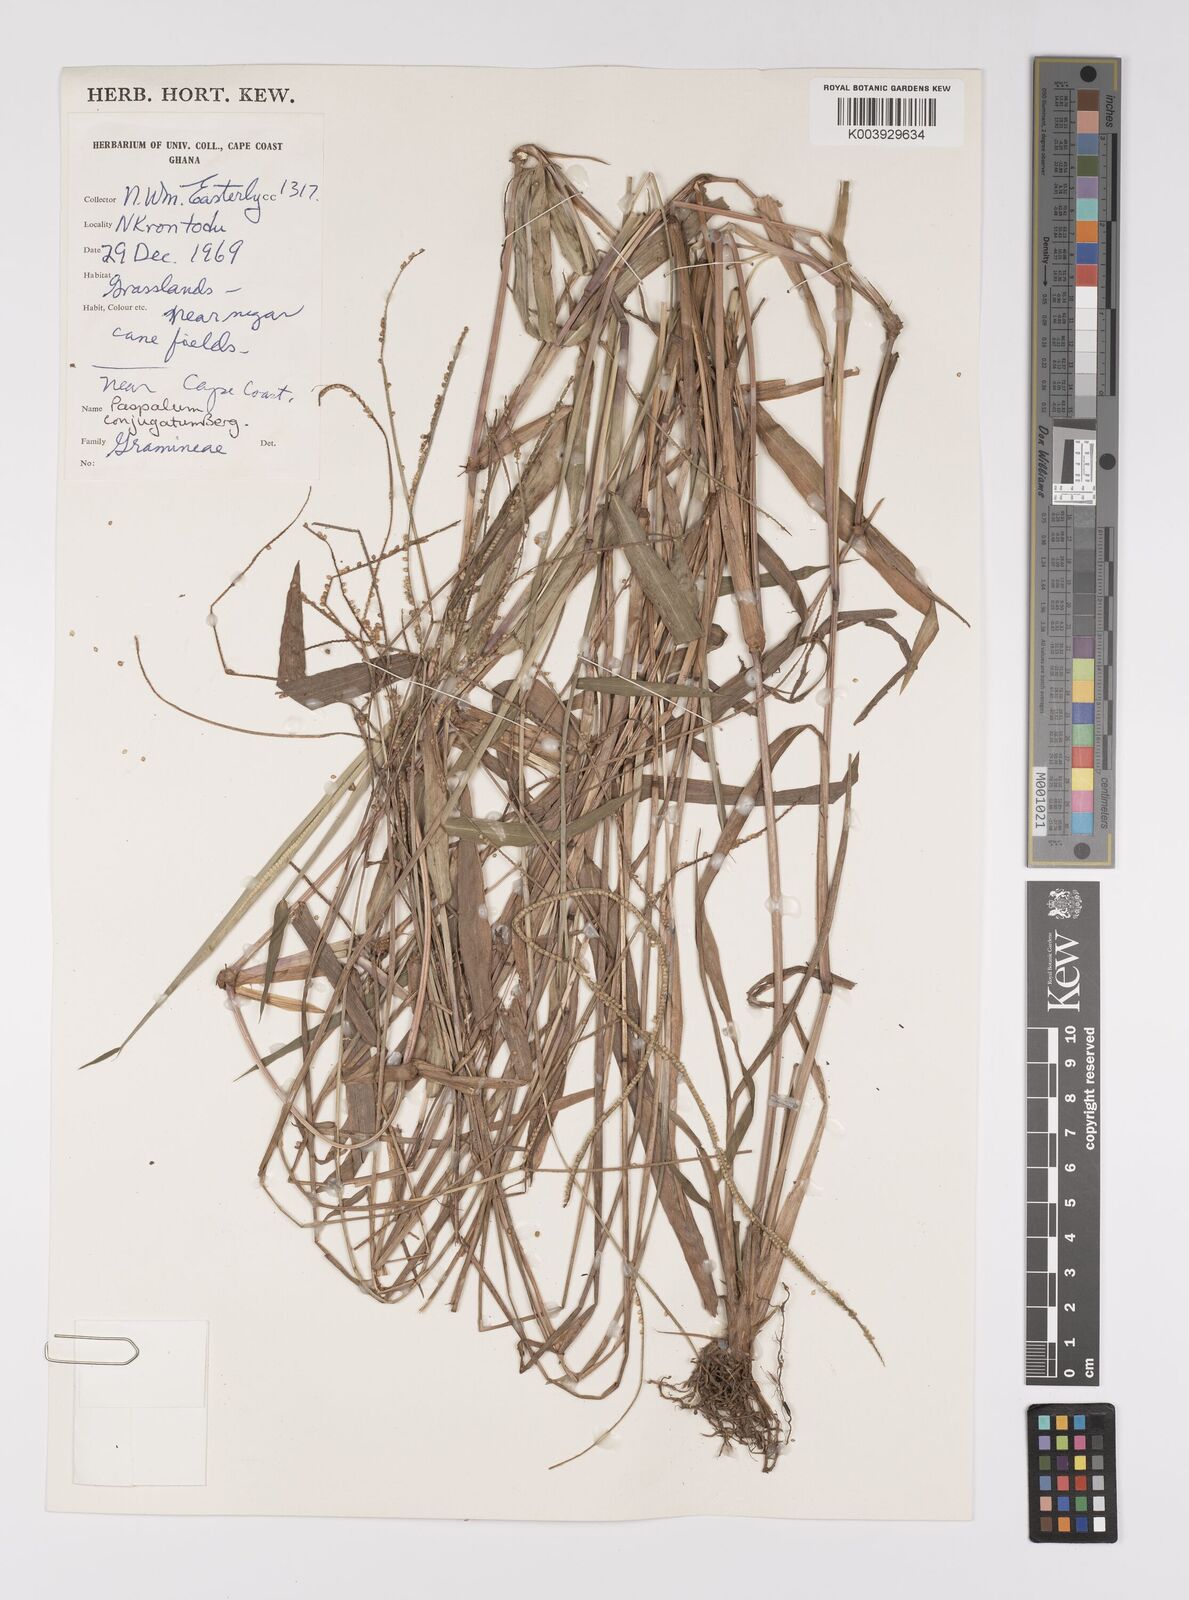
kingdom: Plantae
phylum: Tracheophyta
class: Liliopsida
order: Poales
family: Poaceae
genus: Paspalum
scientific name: Paspalum conjugatum
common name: Hilograss
